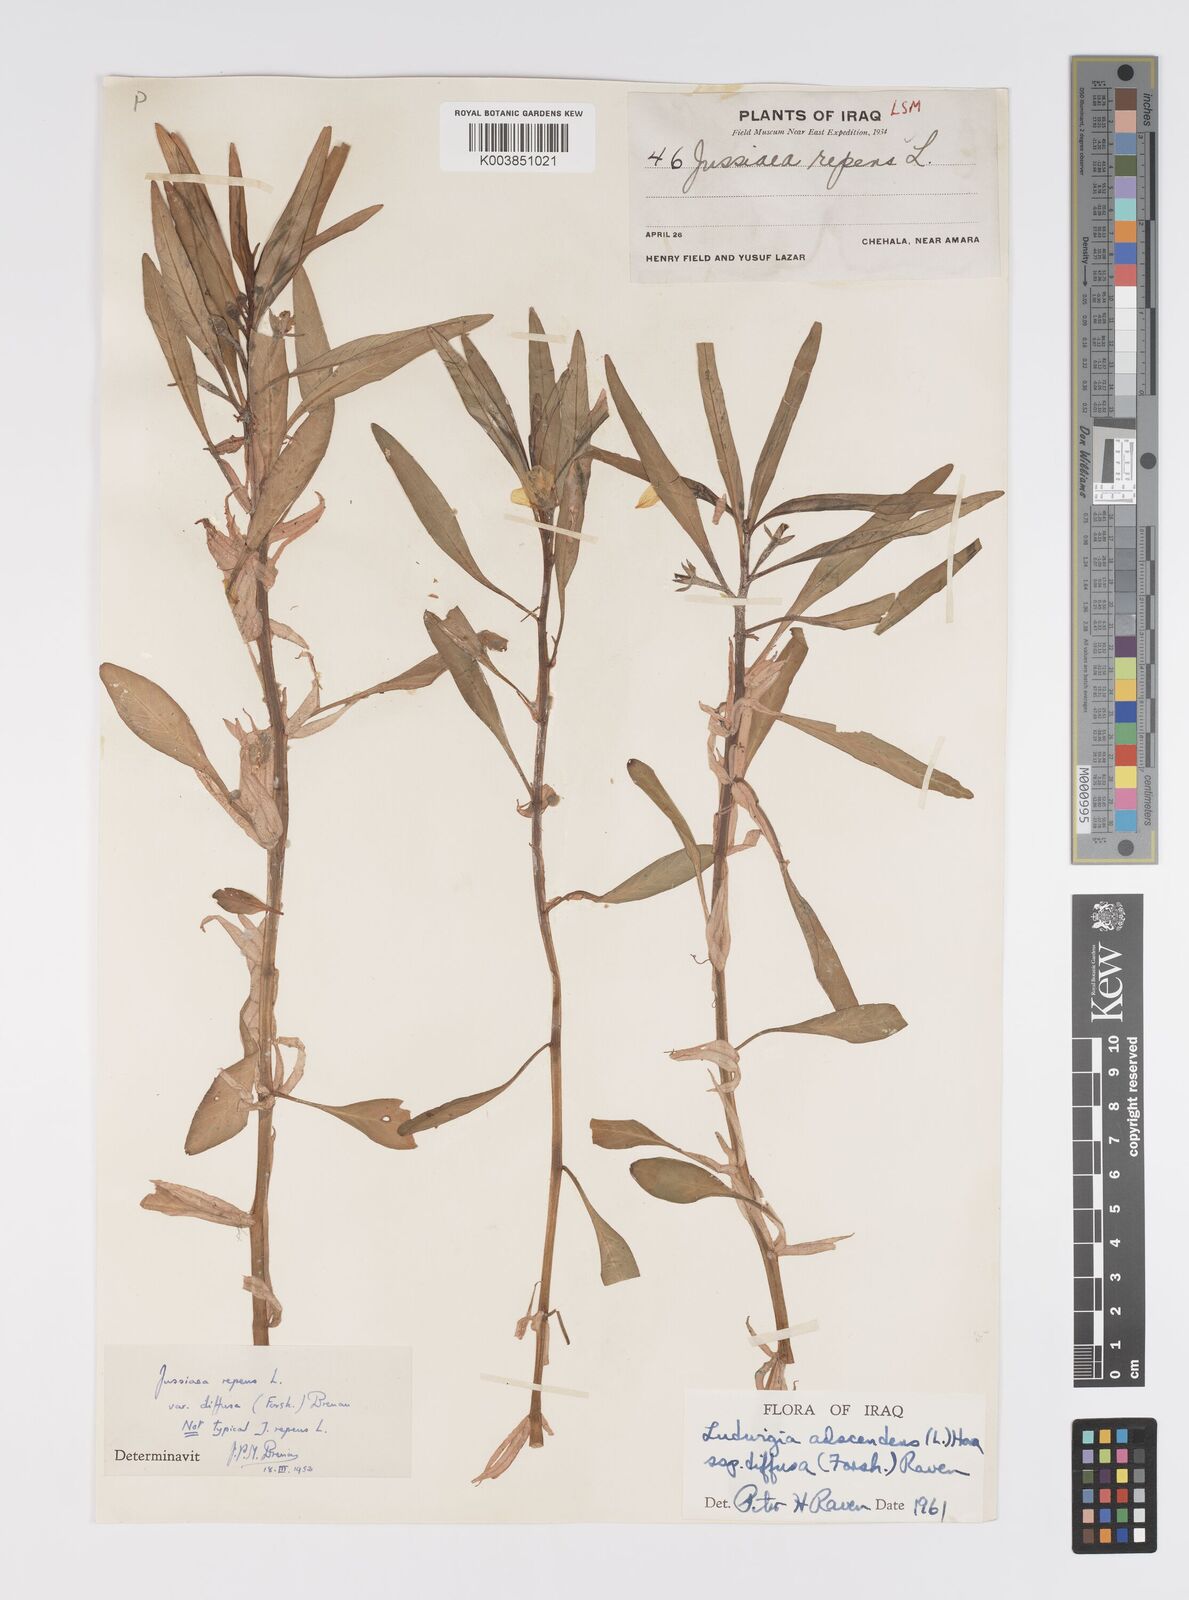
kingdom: Plantae
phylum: Tracheophyta
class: Magnoliopsida
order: Myrtales
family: Onagraceae
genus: Ludwigia
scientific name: Ludwigia adscendens
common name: Creeping water primrose
